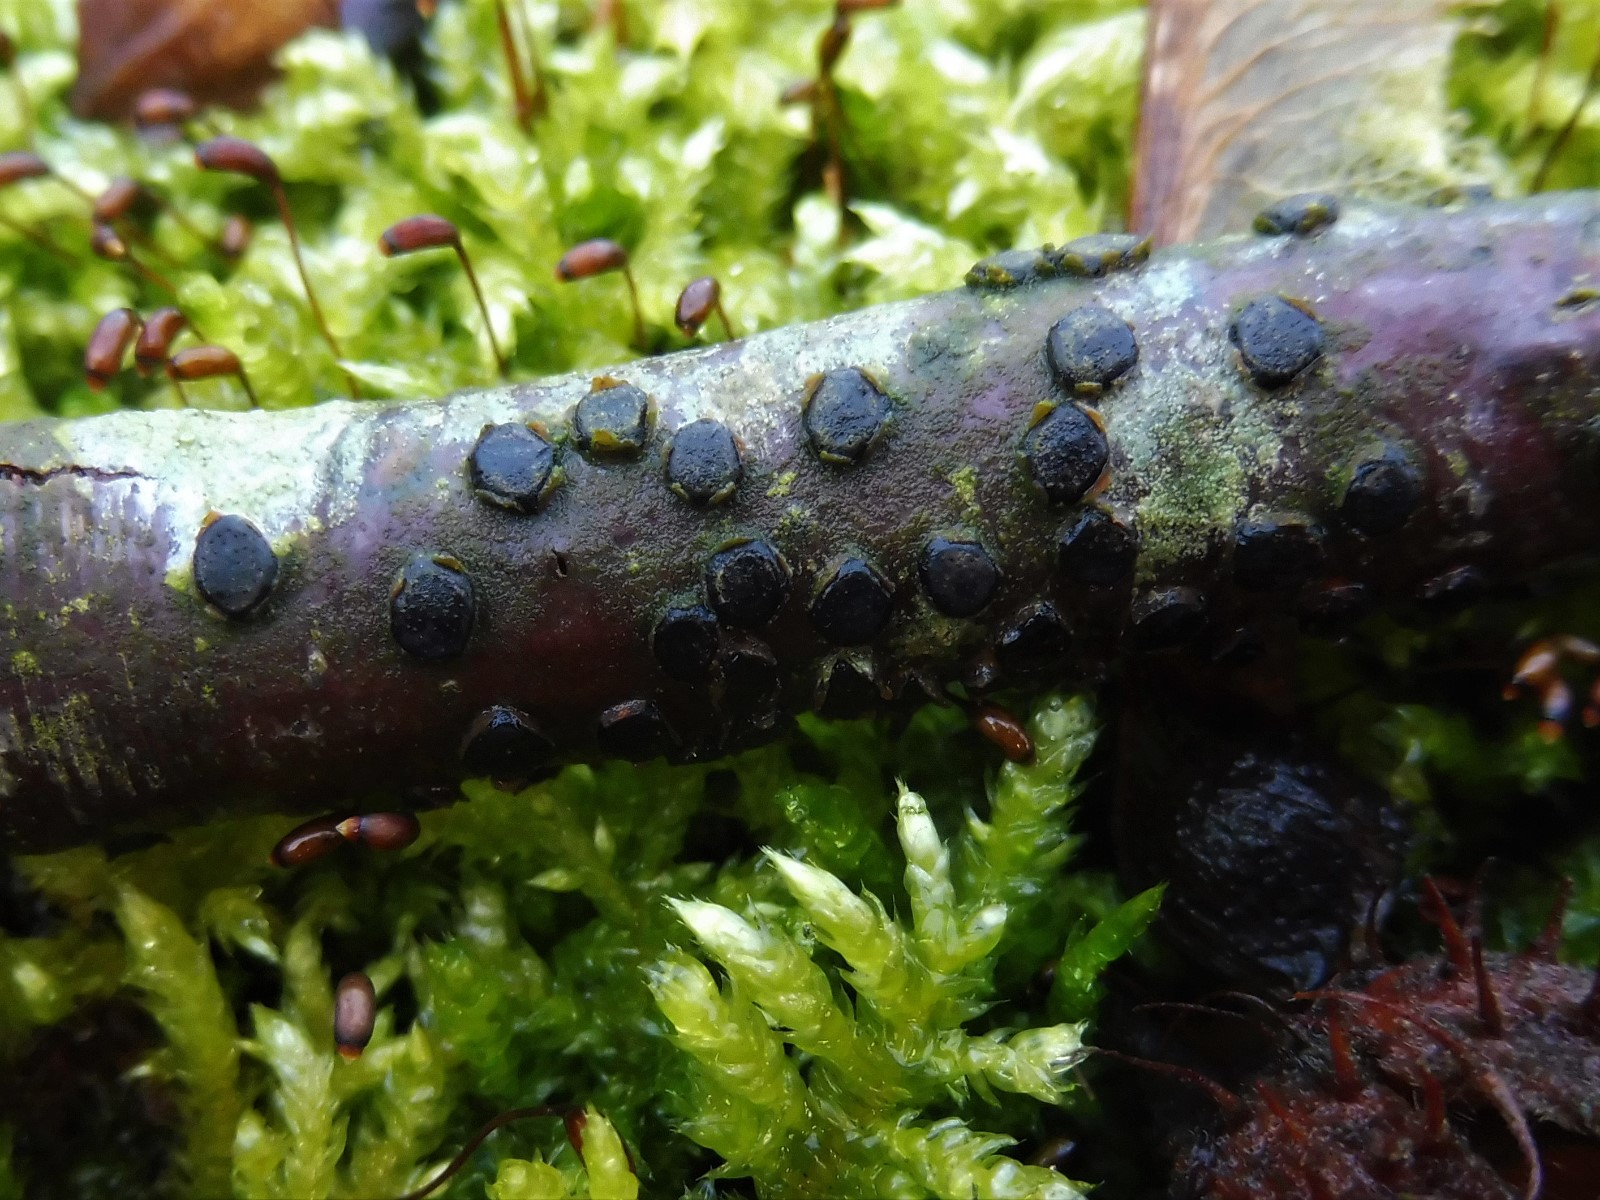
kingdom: Fungi
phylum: Ascomycota
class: Sordariomycetes
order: Xylariales
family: Diatrypaceae
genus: Diatrype
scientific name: Diatrype disciformis
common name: kant-kulskorpe
